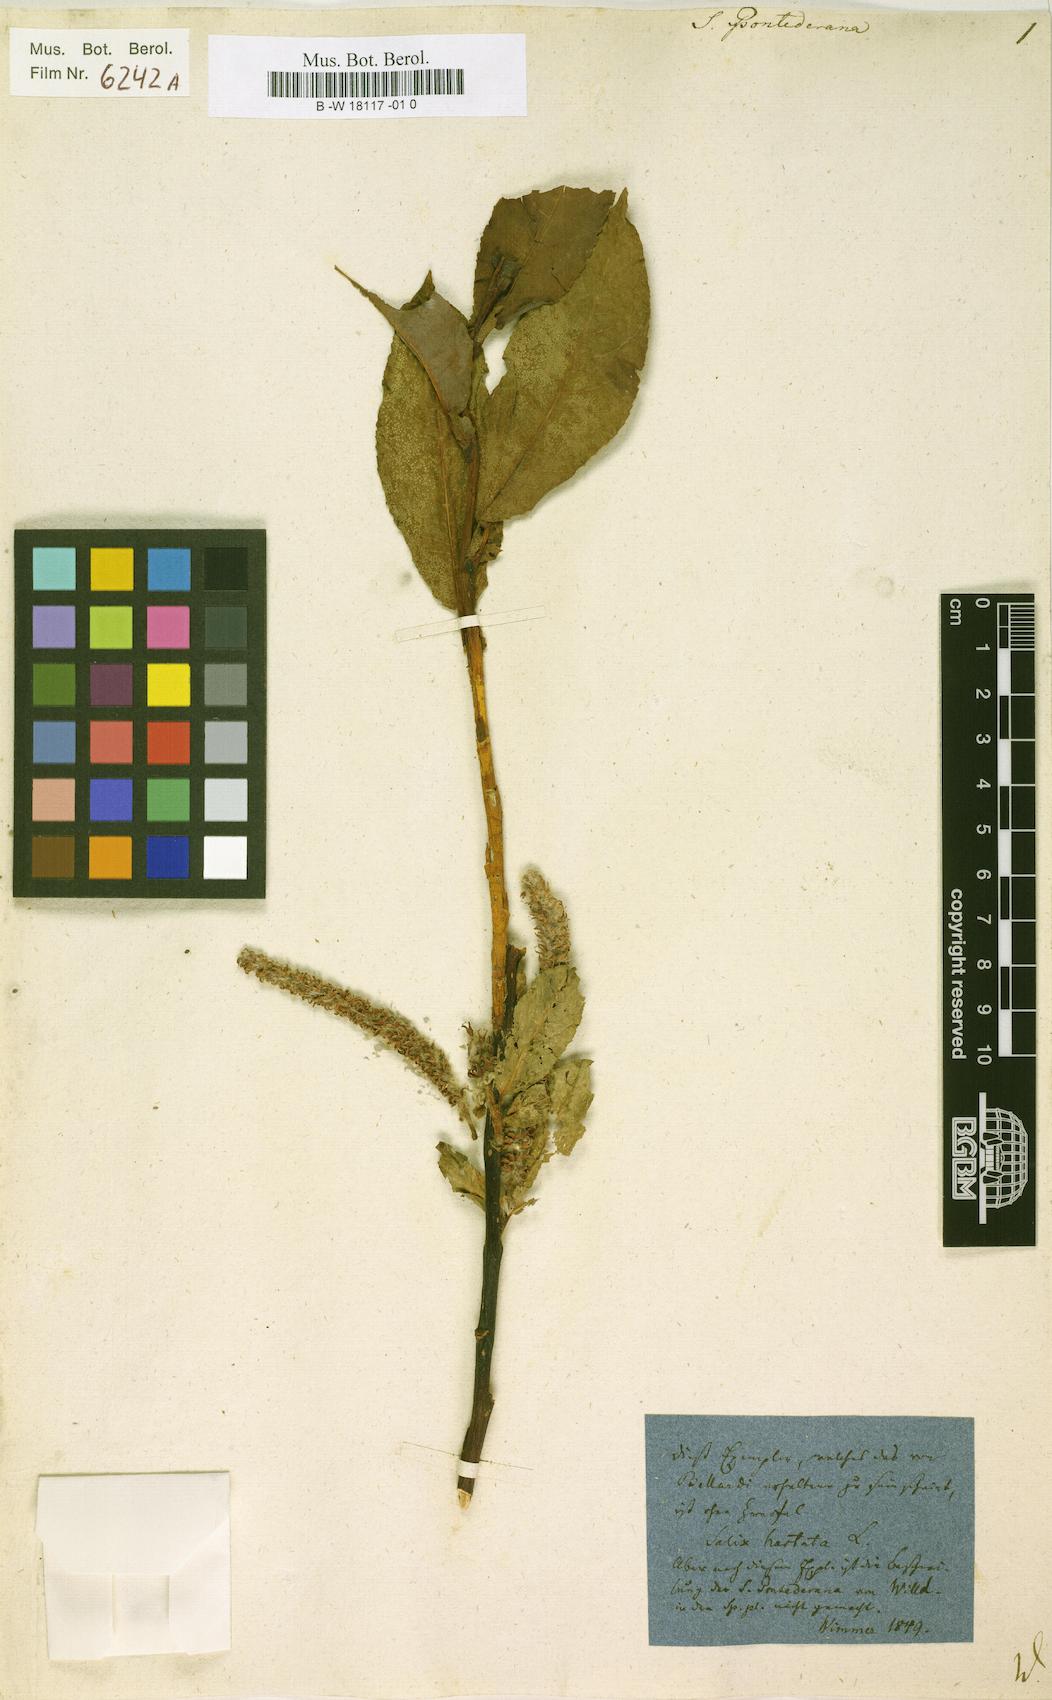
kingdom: Plantae
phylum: Tracheophyta
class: Magnoliopsida
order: Malpighiales
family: Salicaceae
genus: Salix
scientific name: Salix pontederana
